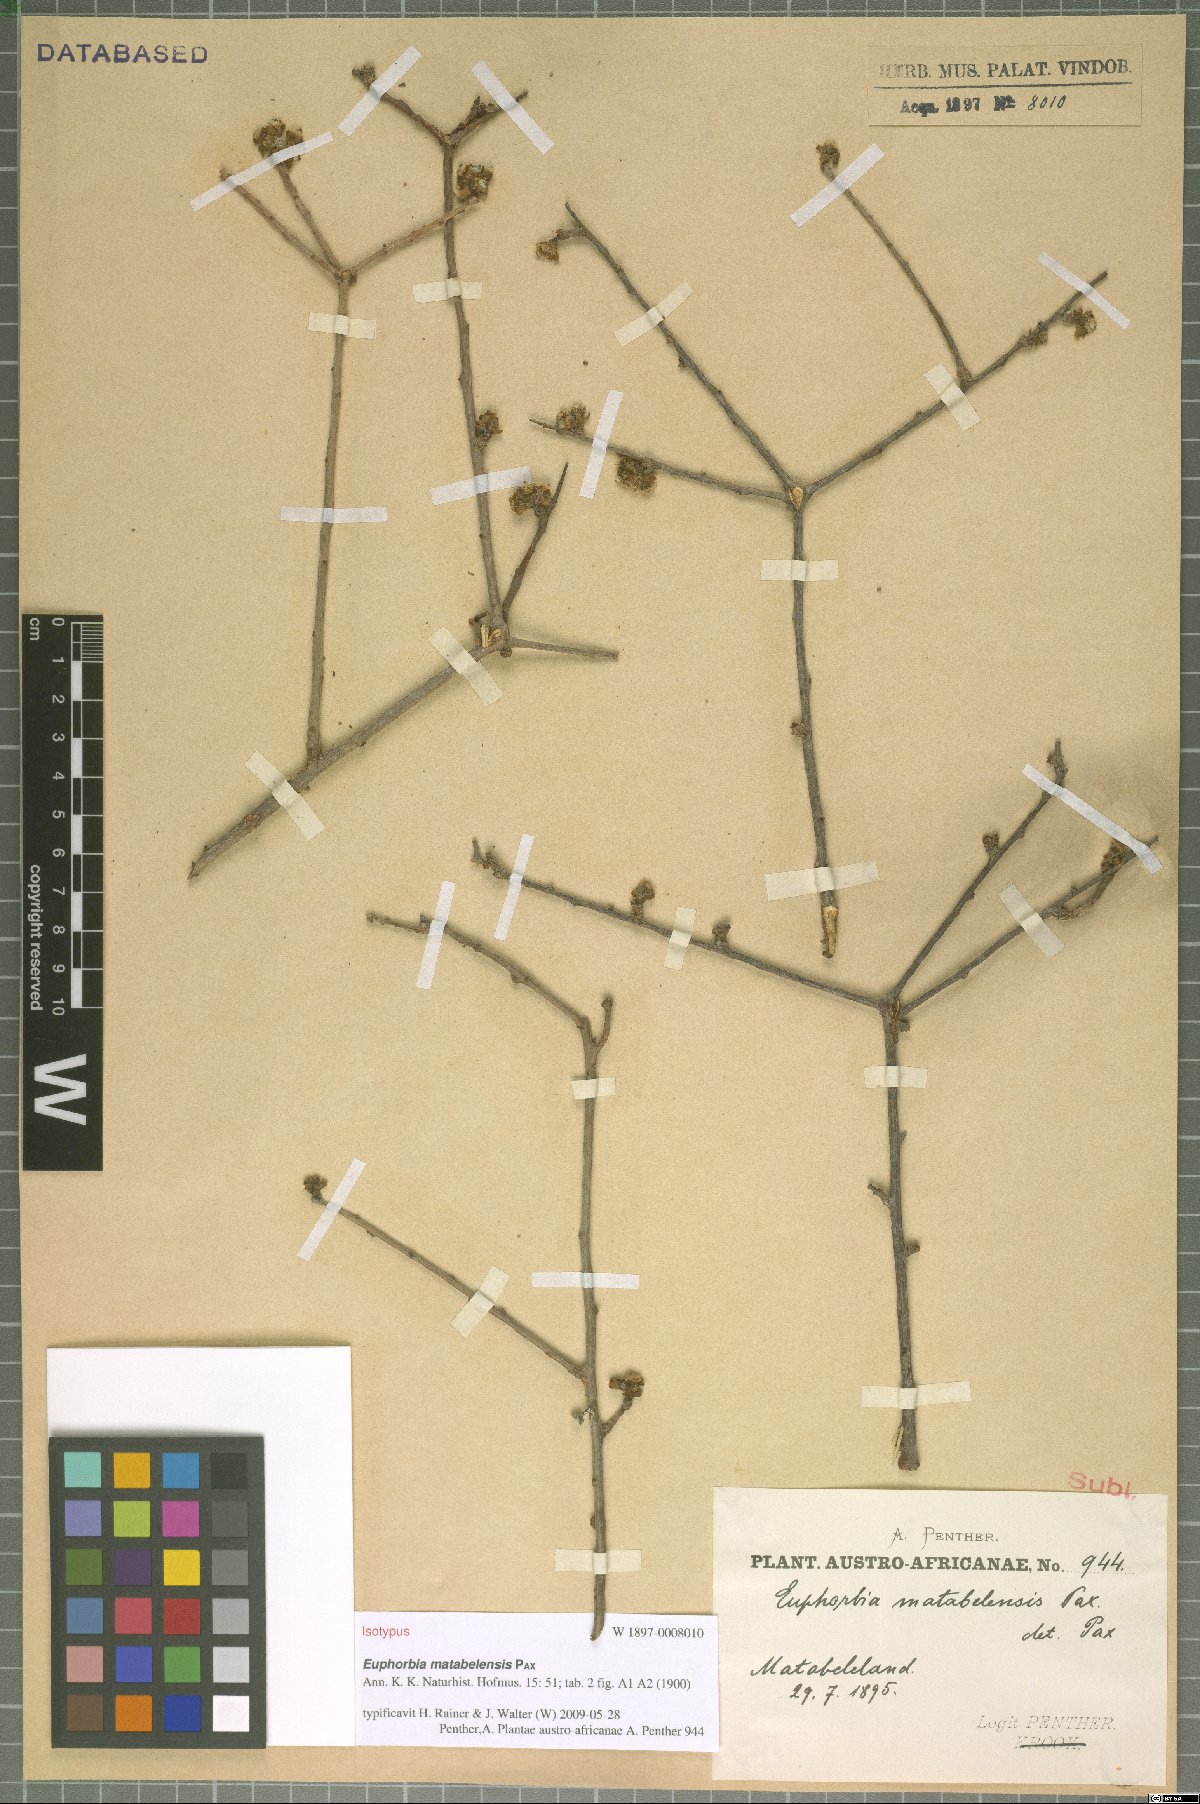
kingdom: Plantae
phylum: Tracheophyta
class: Magnoliopsida
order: Malpighiales
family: Euphorbiaceae
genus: Euphorbia
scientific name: Euphorbia matabelensis
